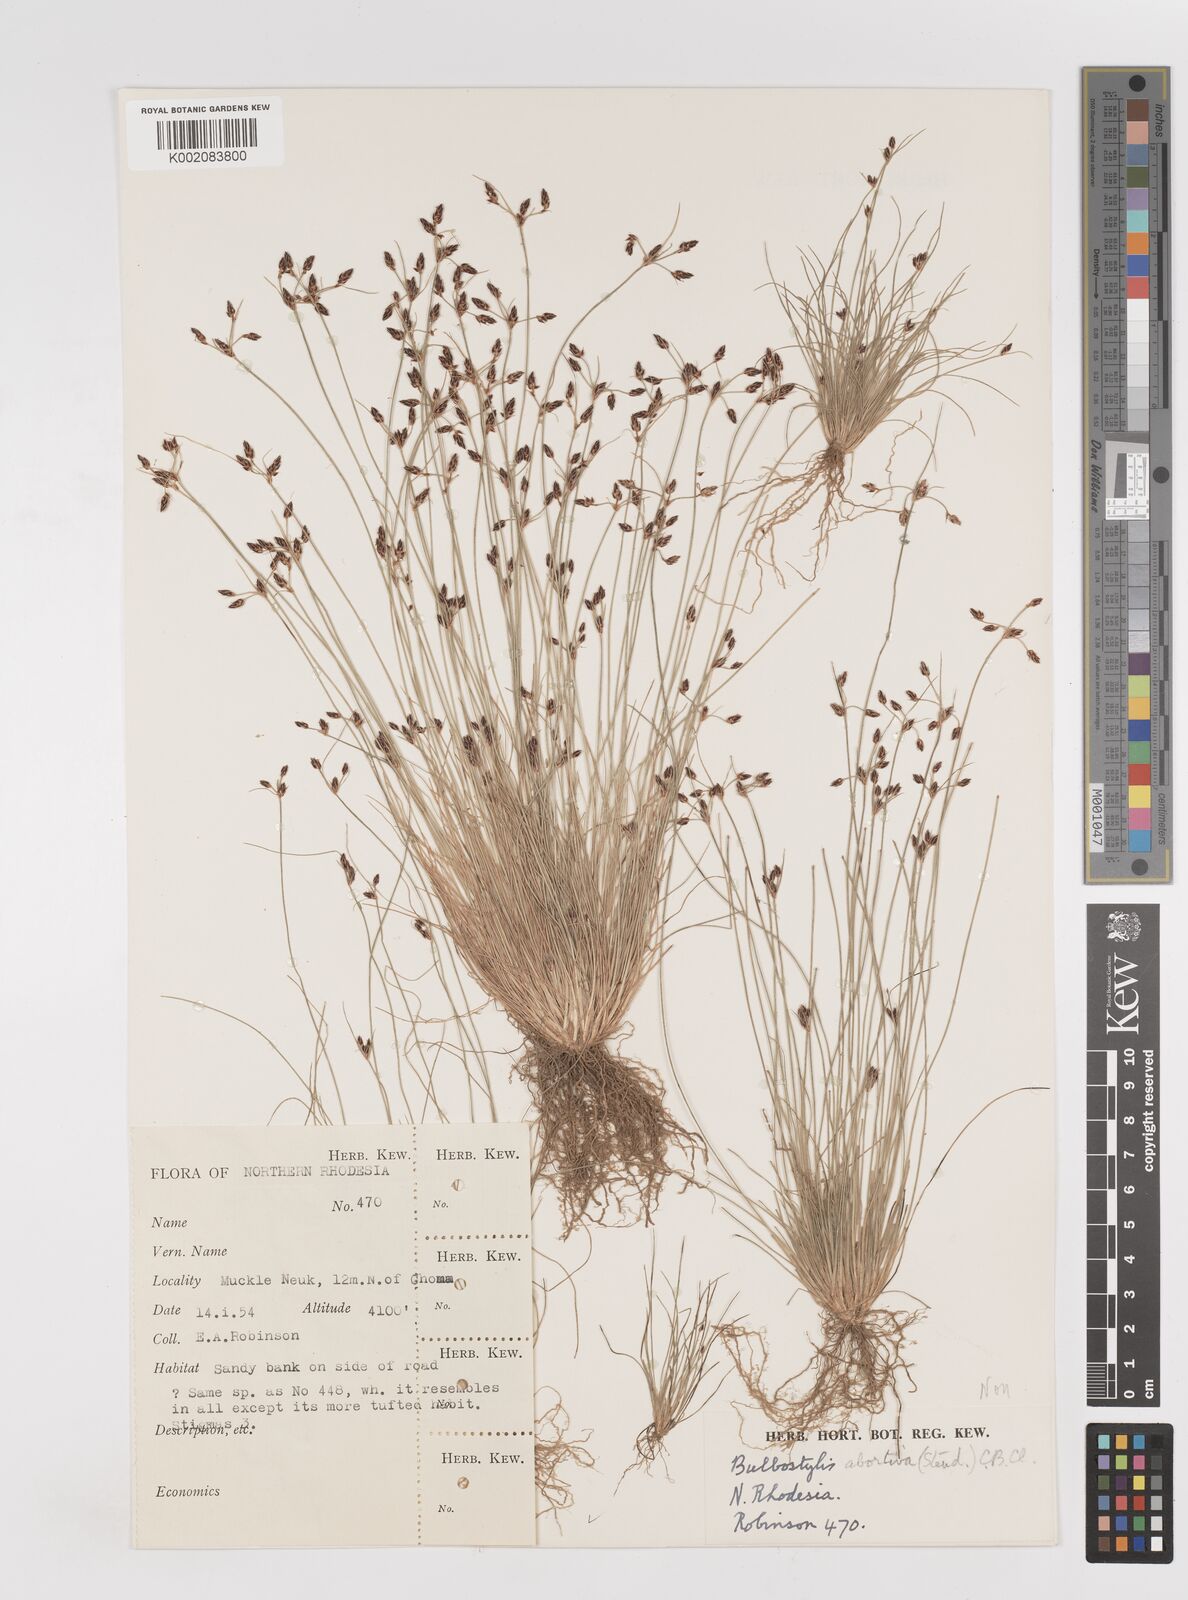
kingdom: Plantae
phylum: Tracheophyta
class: Liliopsida
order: Poales
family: Cyperaceae
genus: Bulbostylis
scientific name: Bulbostylis hispidula
